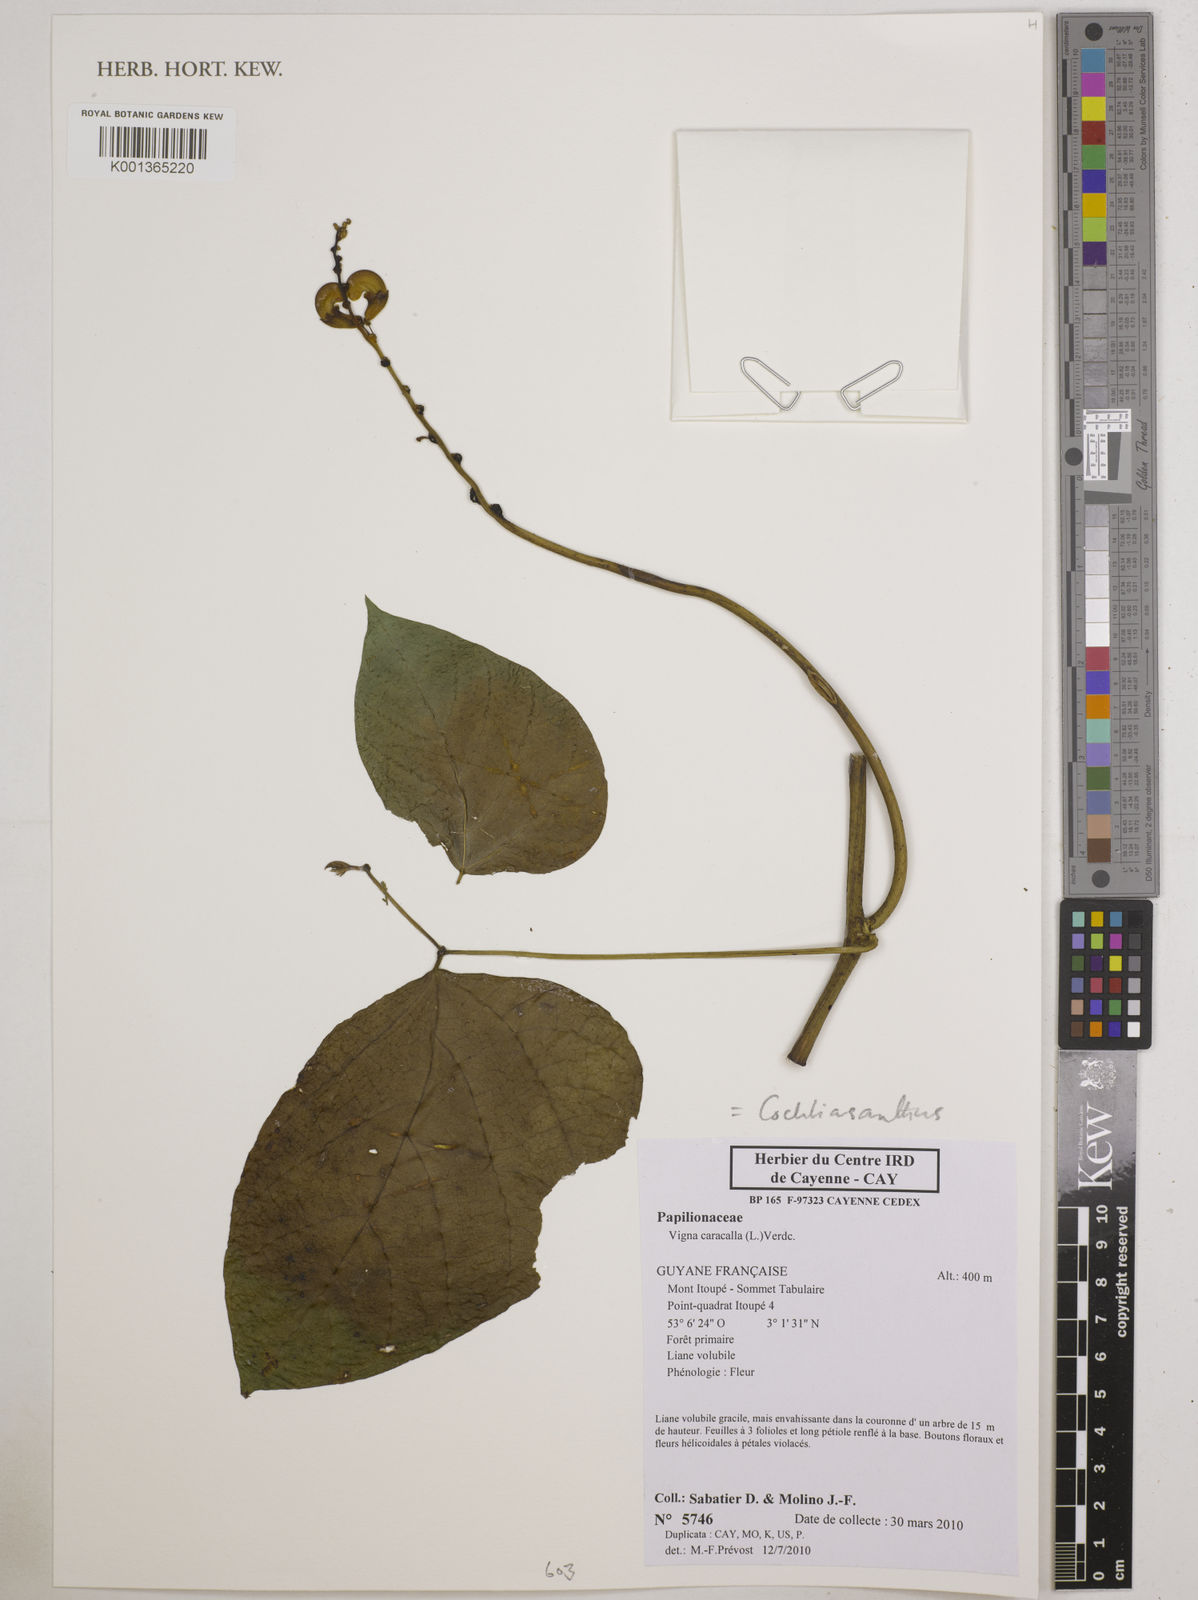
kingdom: Plantae
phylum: Tracheophyta
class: Magnoliopsida
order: Fabales
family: Fabaceae
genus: Cochliasanthus
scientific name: Cochliasanthus caracalla
